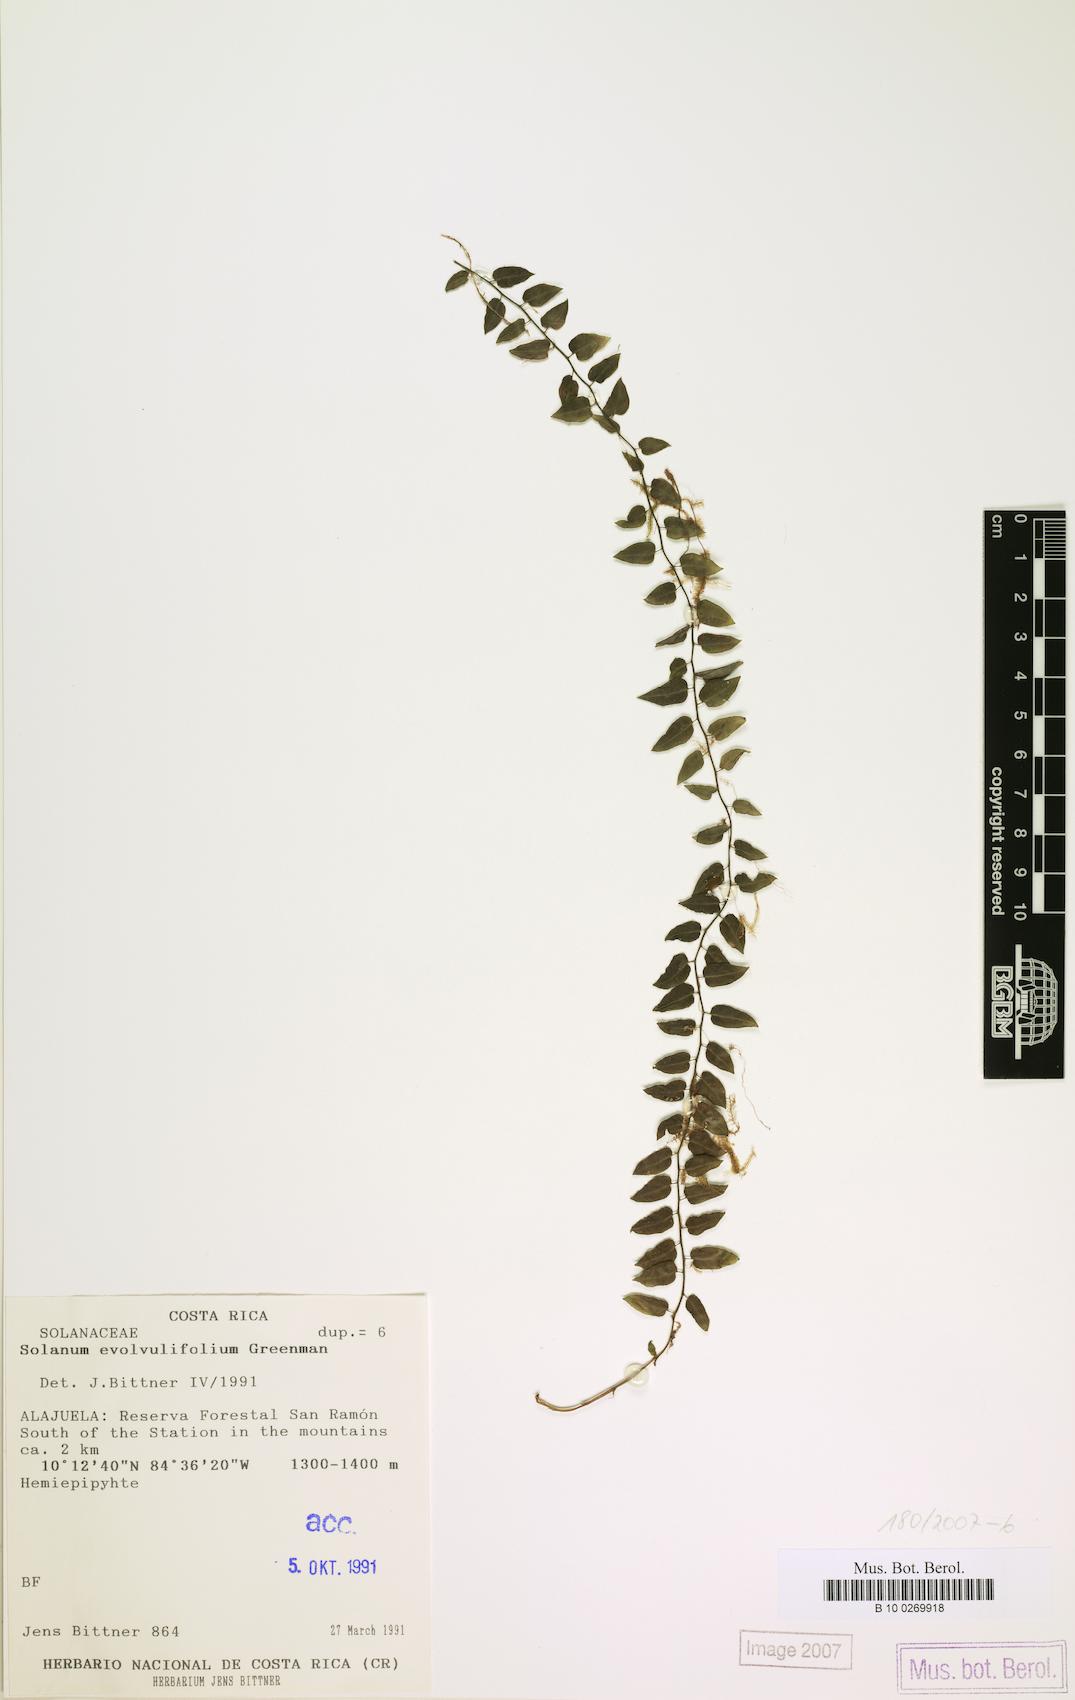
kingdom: Plantae
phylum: Tracheophyta
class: Magnoliopsida
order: Solanales
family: Solanaceae
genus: Solanum
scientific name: Solanum evolvulifolium
